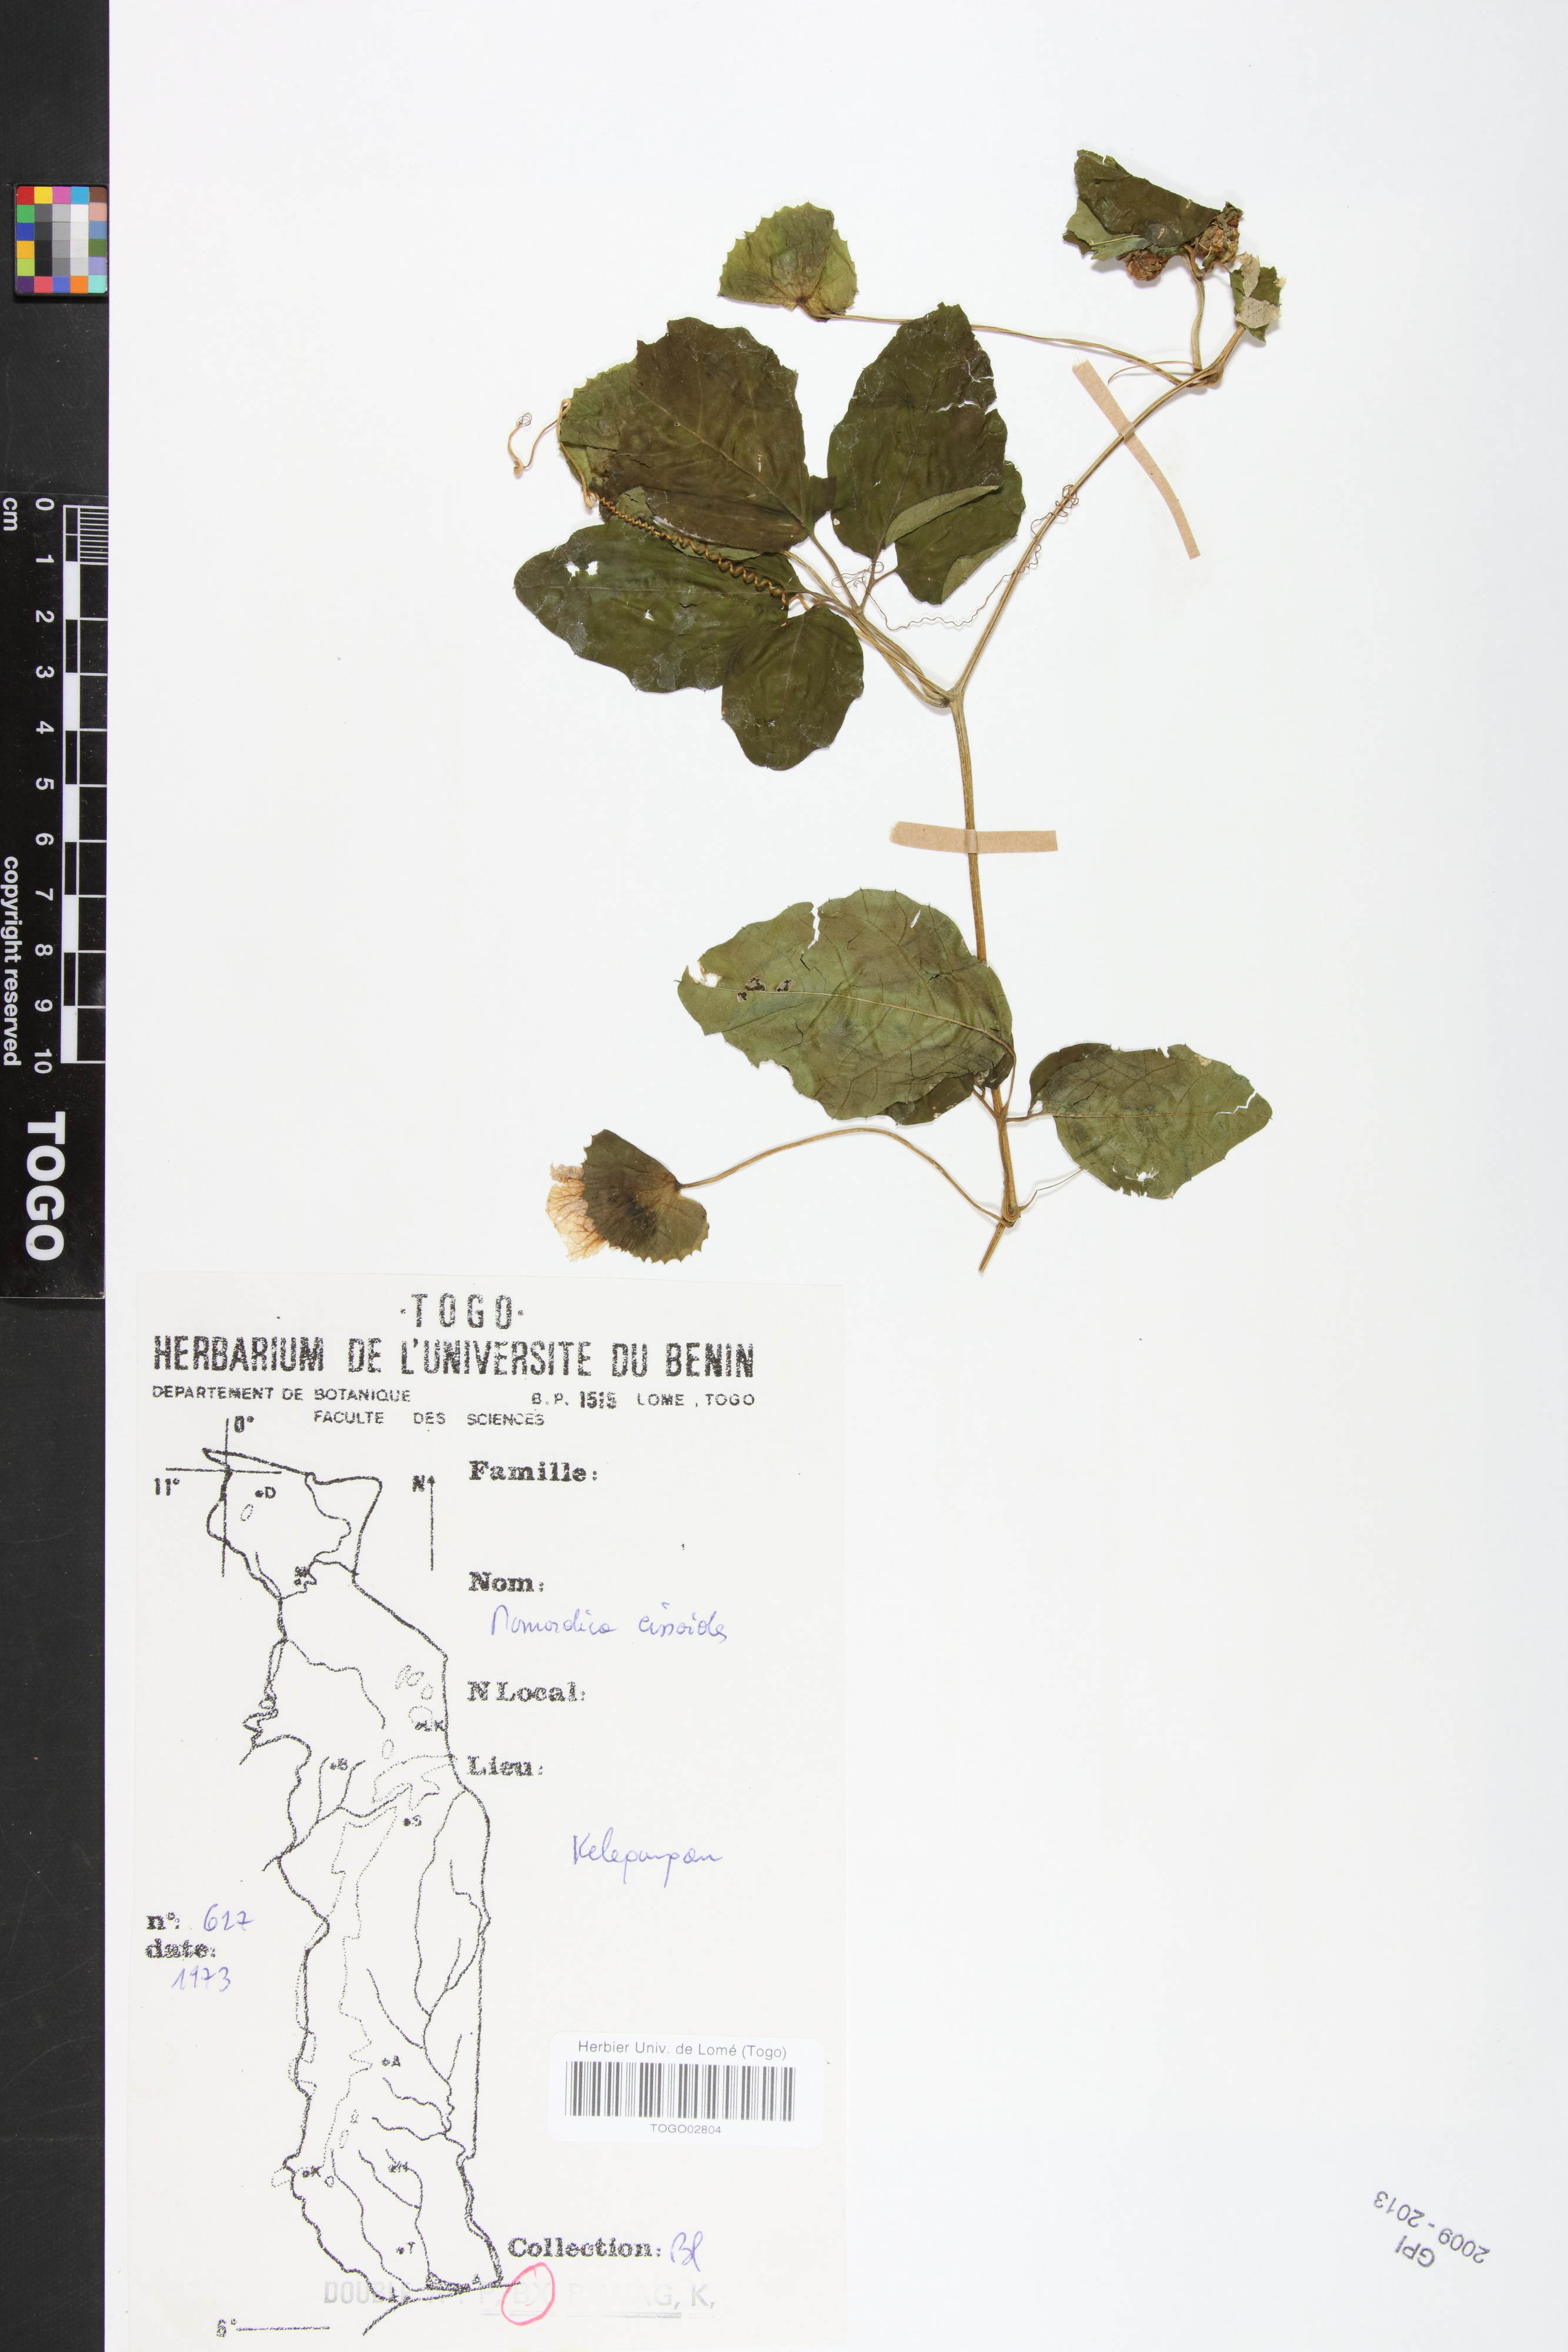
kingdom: Plantae
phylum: Tracheophyta
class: Magnoliopsida
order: Cucurbitales
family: Cucurbitaceae
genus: Momordica
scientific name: Momordica cissoides
